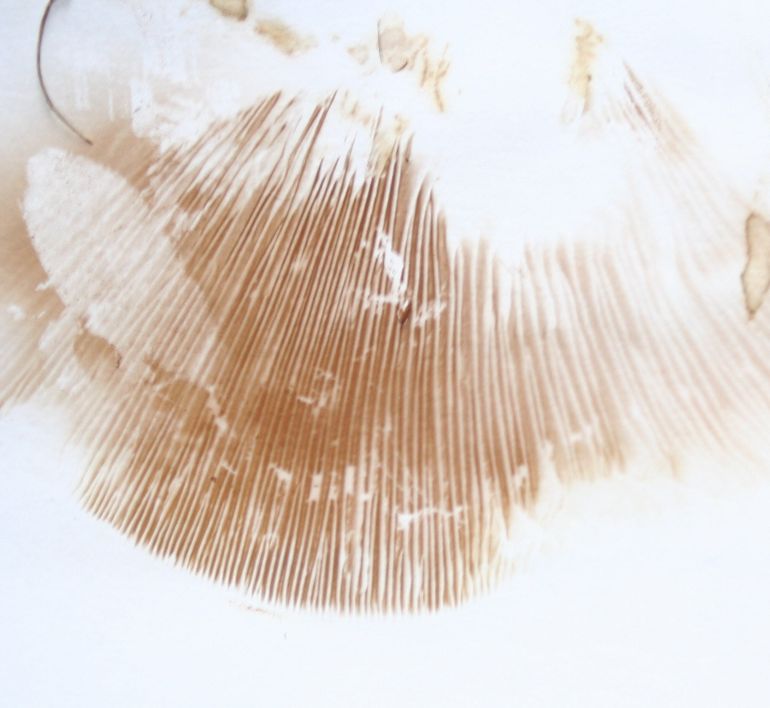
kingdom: Fungi
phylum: Basidiomycota
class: Agaricomycetes
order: Boletales
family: Paxillaceae
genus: Paxillus
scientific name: Paxillus obscurisporus
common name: mahognisporet netbladhat
